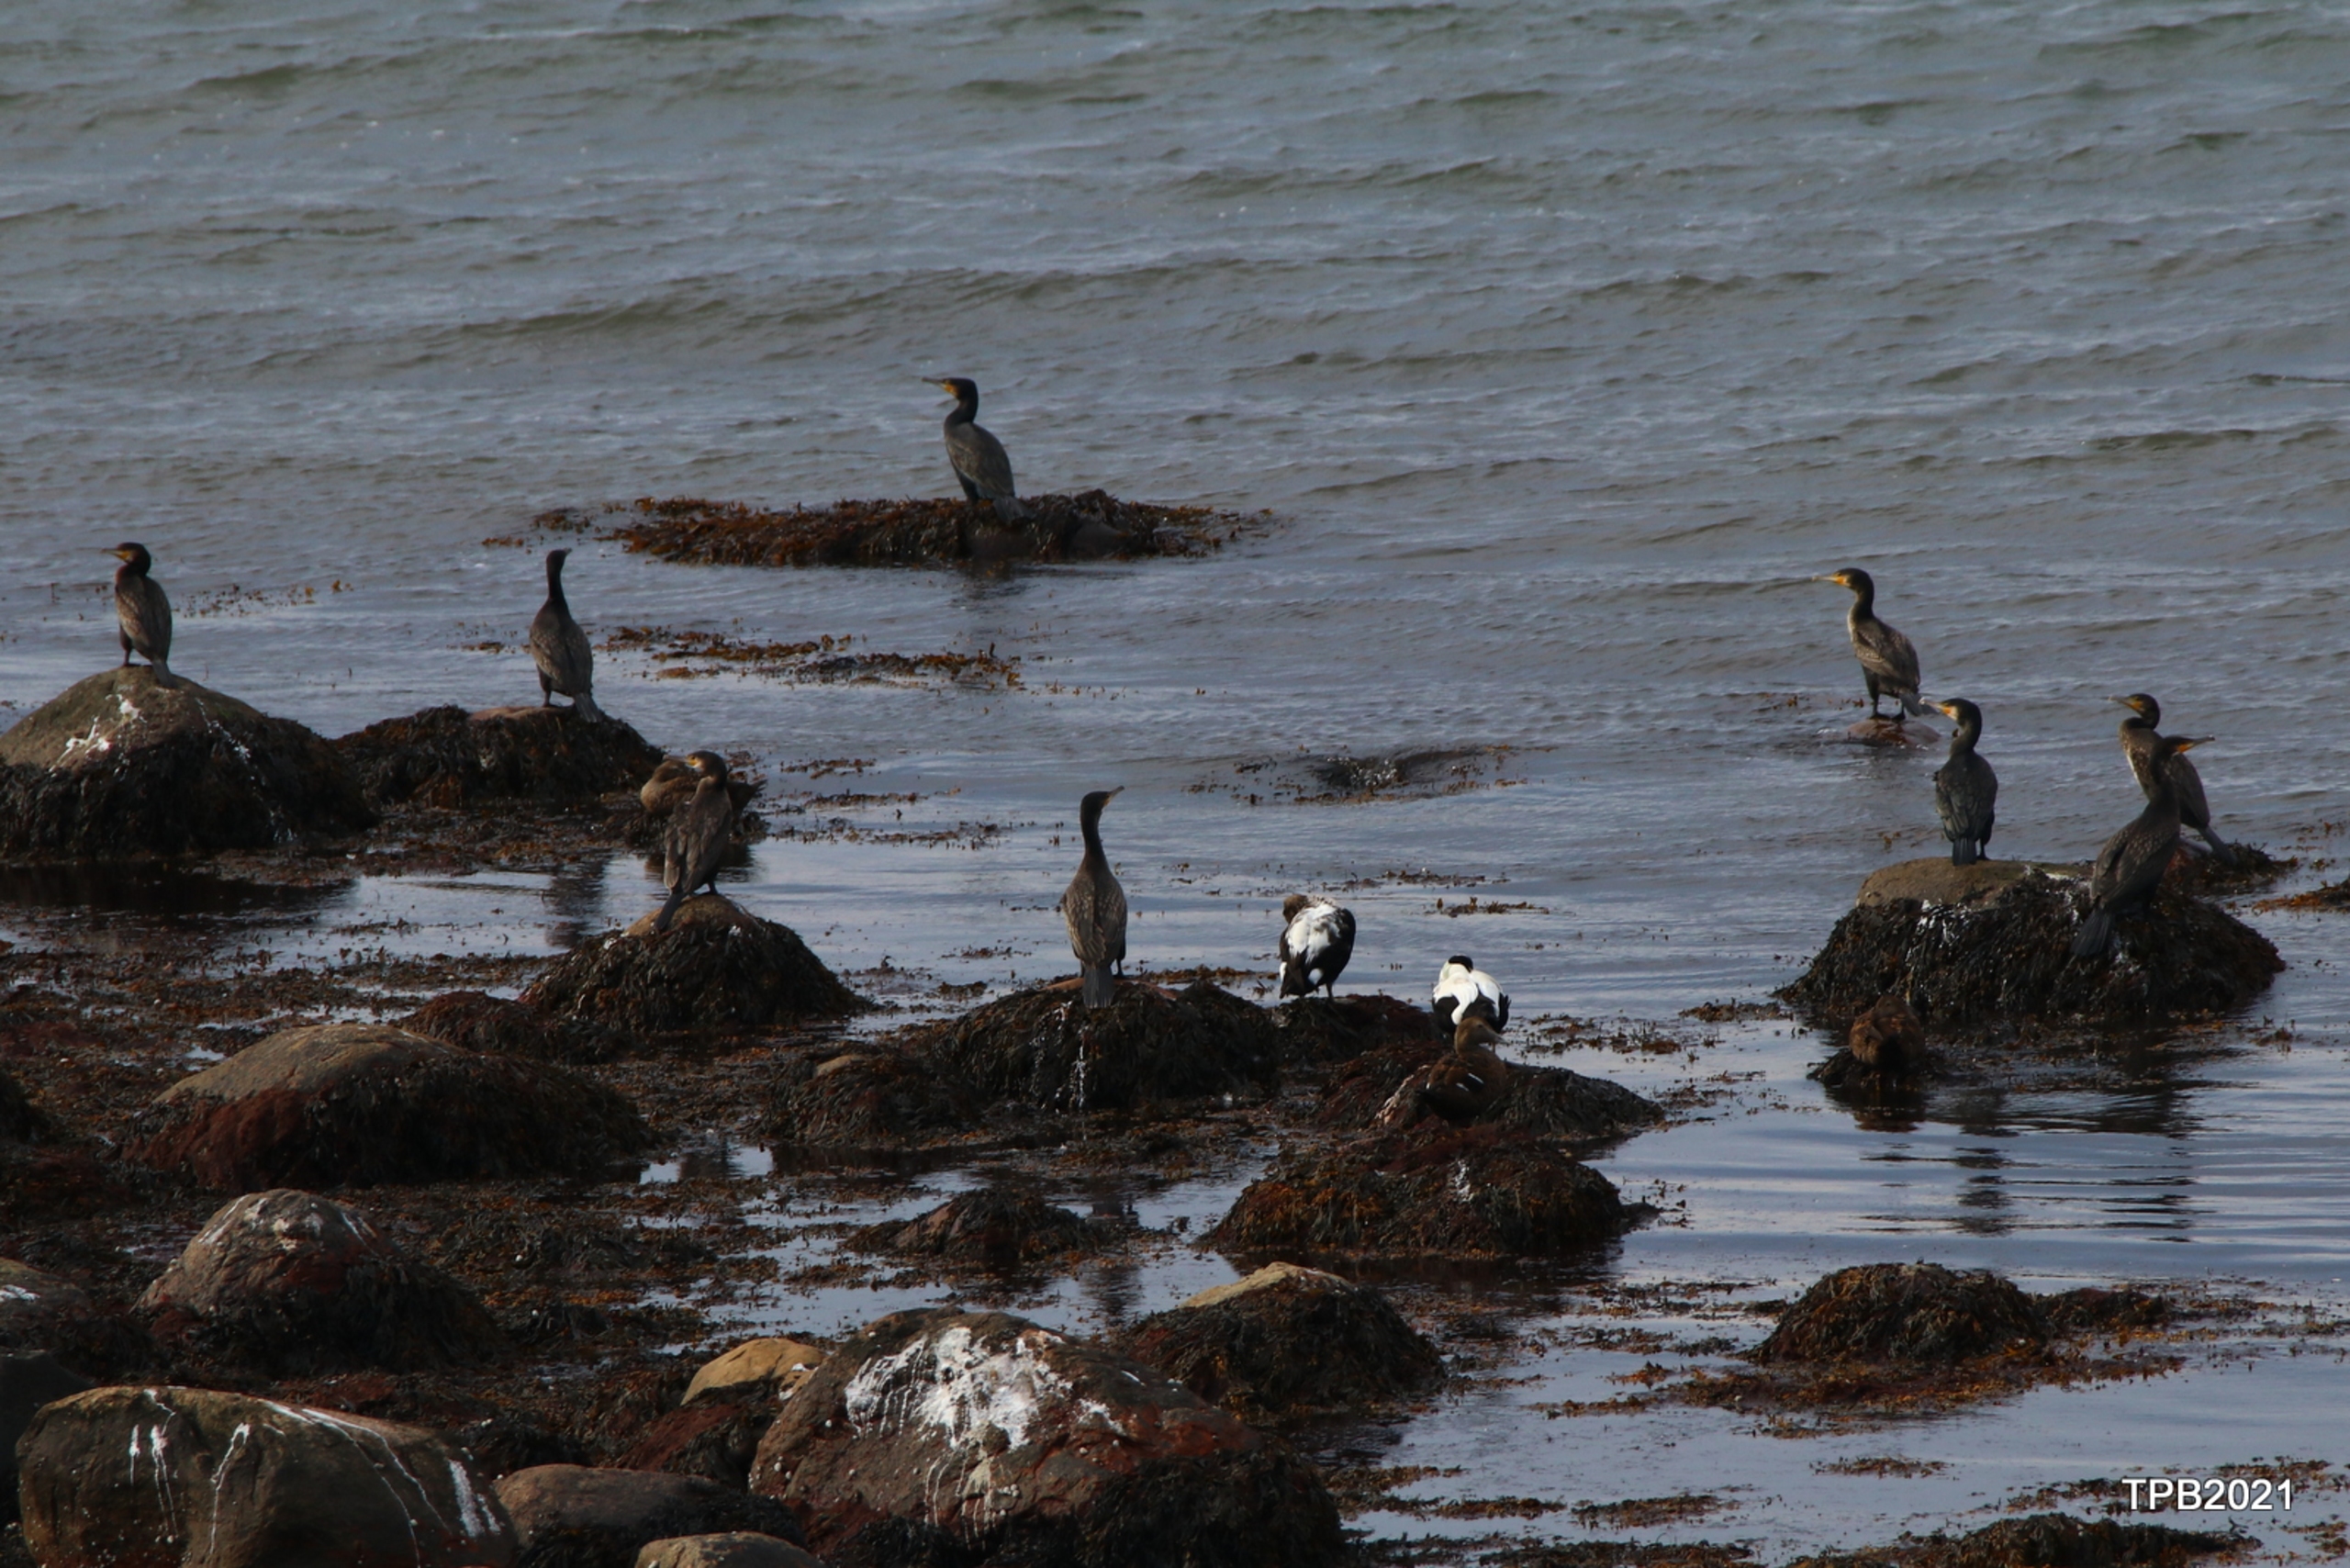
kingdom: Animalia
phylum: Chordata
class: Aves
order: Suliformes
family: Phalacrocoracidae
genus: Phalacrocorax
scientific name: Phalacrocorax carbo
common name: Skarv
